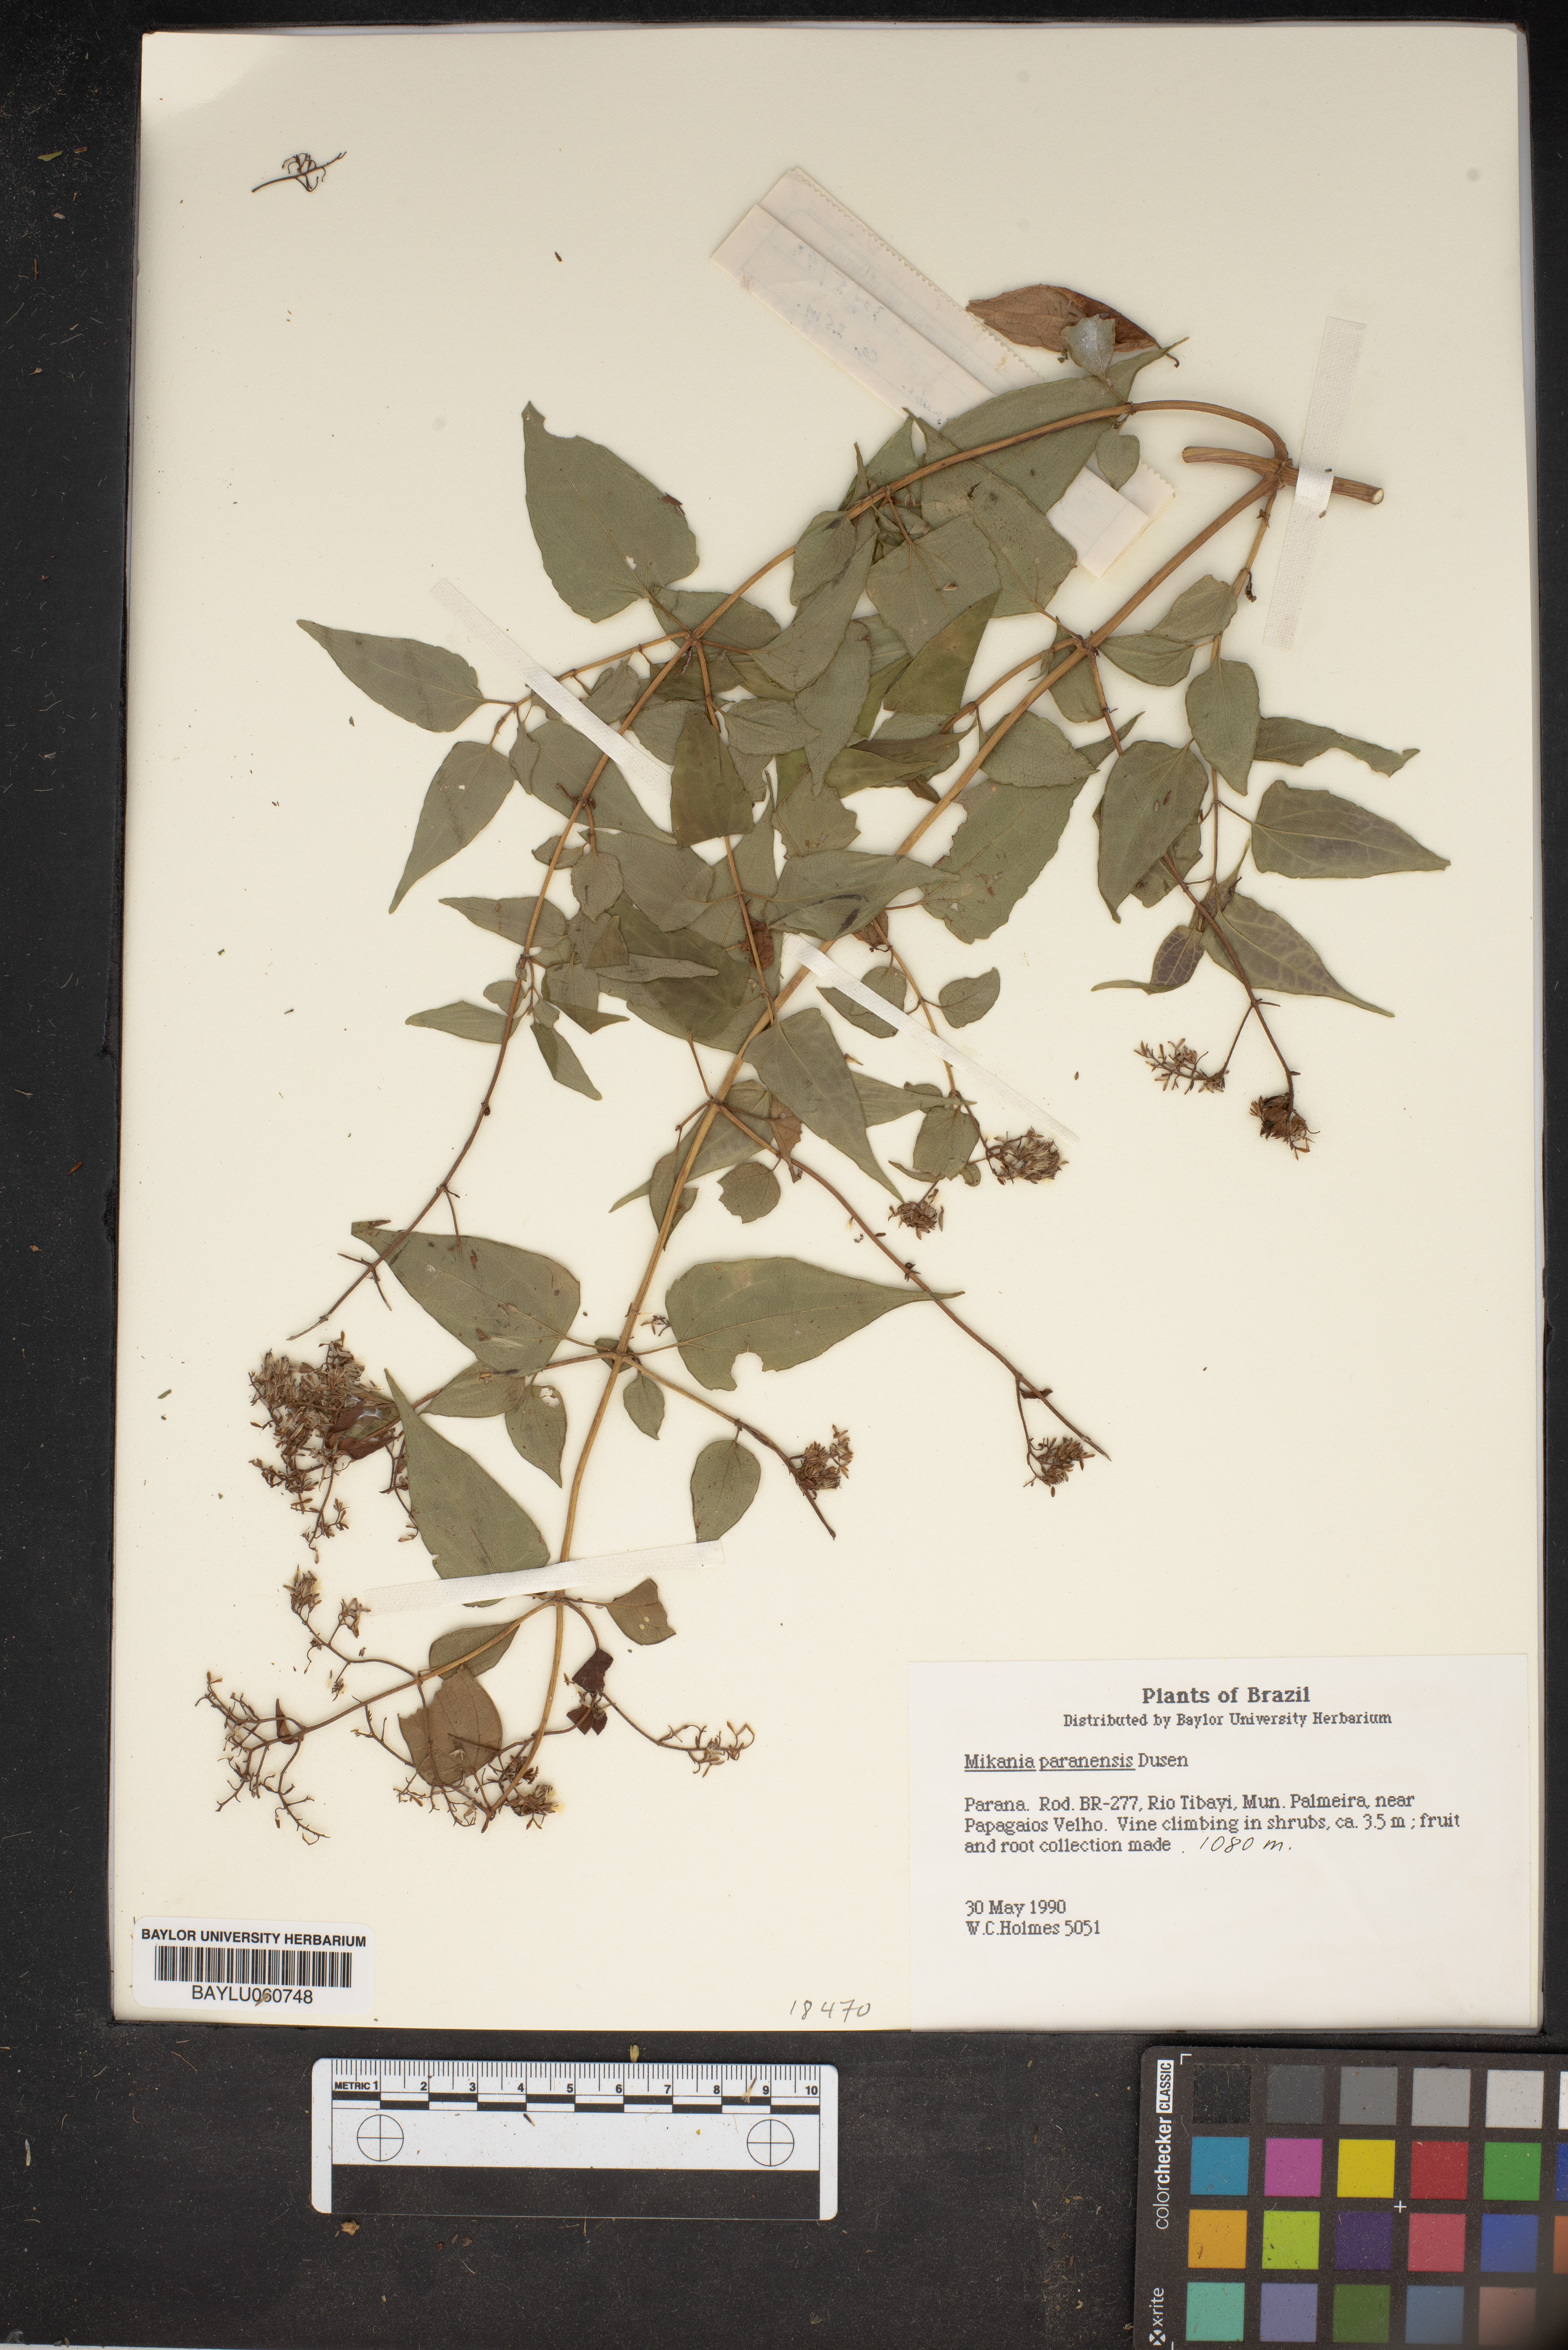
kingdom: Plantae
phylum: Tracheophyta
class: Magnoliopsida
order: Asterales
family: Asteraceae
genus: Mikania
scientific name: Mikania paranensis
